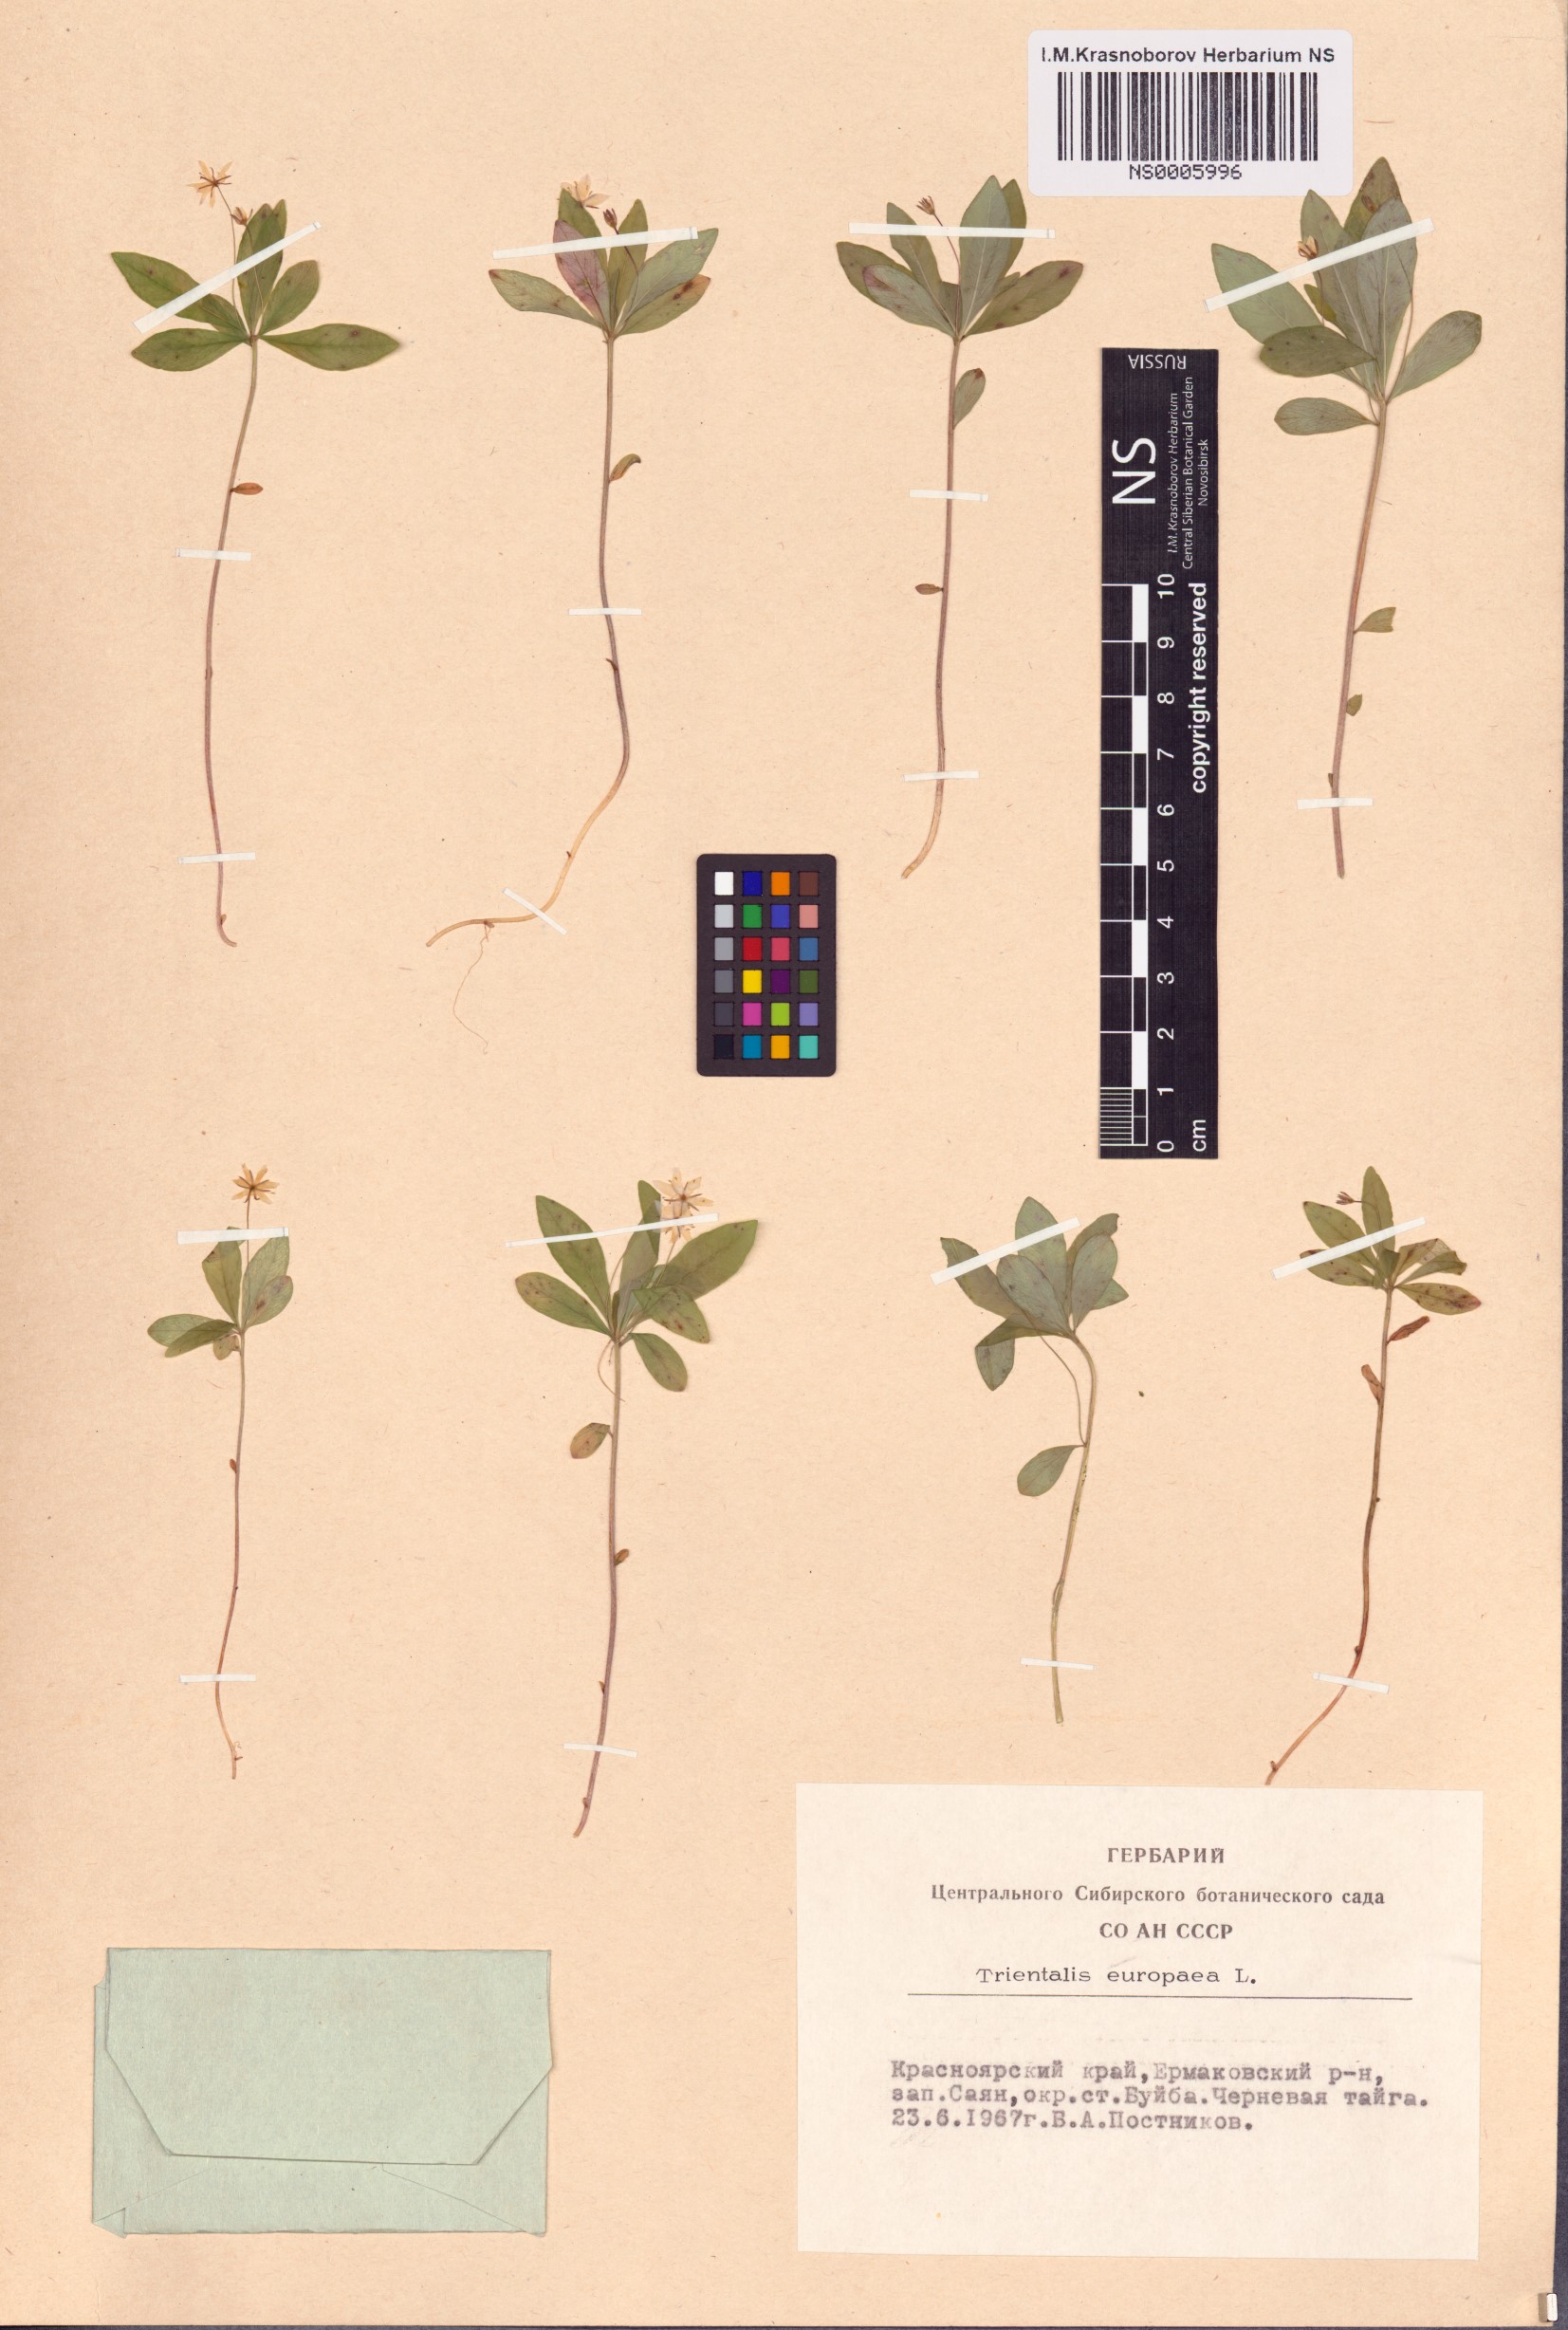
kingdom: Plantae
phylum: Tracheophyta
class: Magnoliopsida
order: Ericales
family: Primulaceae
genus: Lysimachia
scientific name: Lysimachia europaea
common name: Arctic starflower
